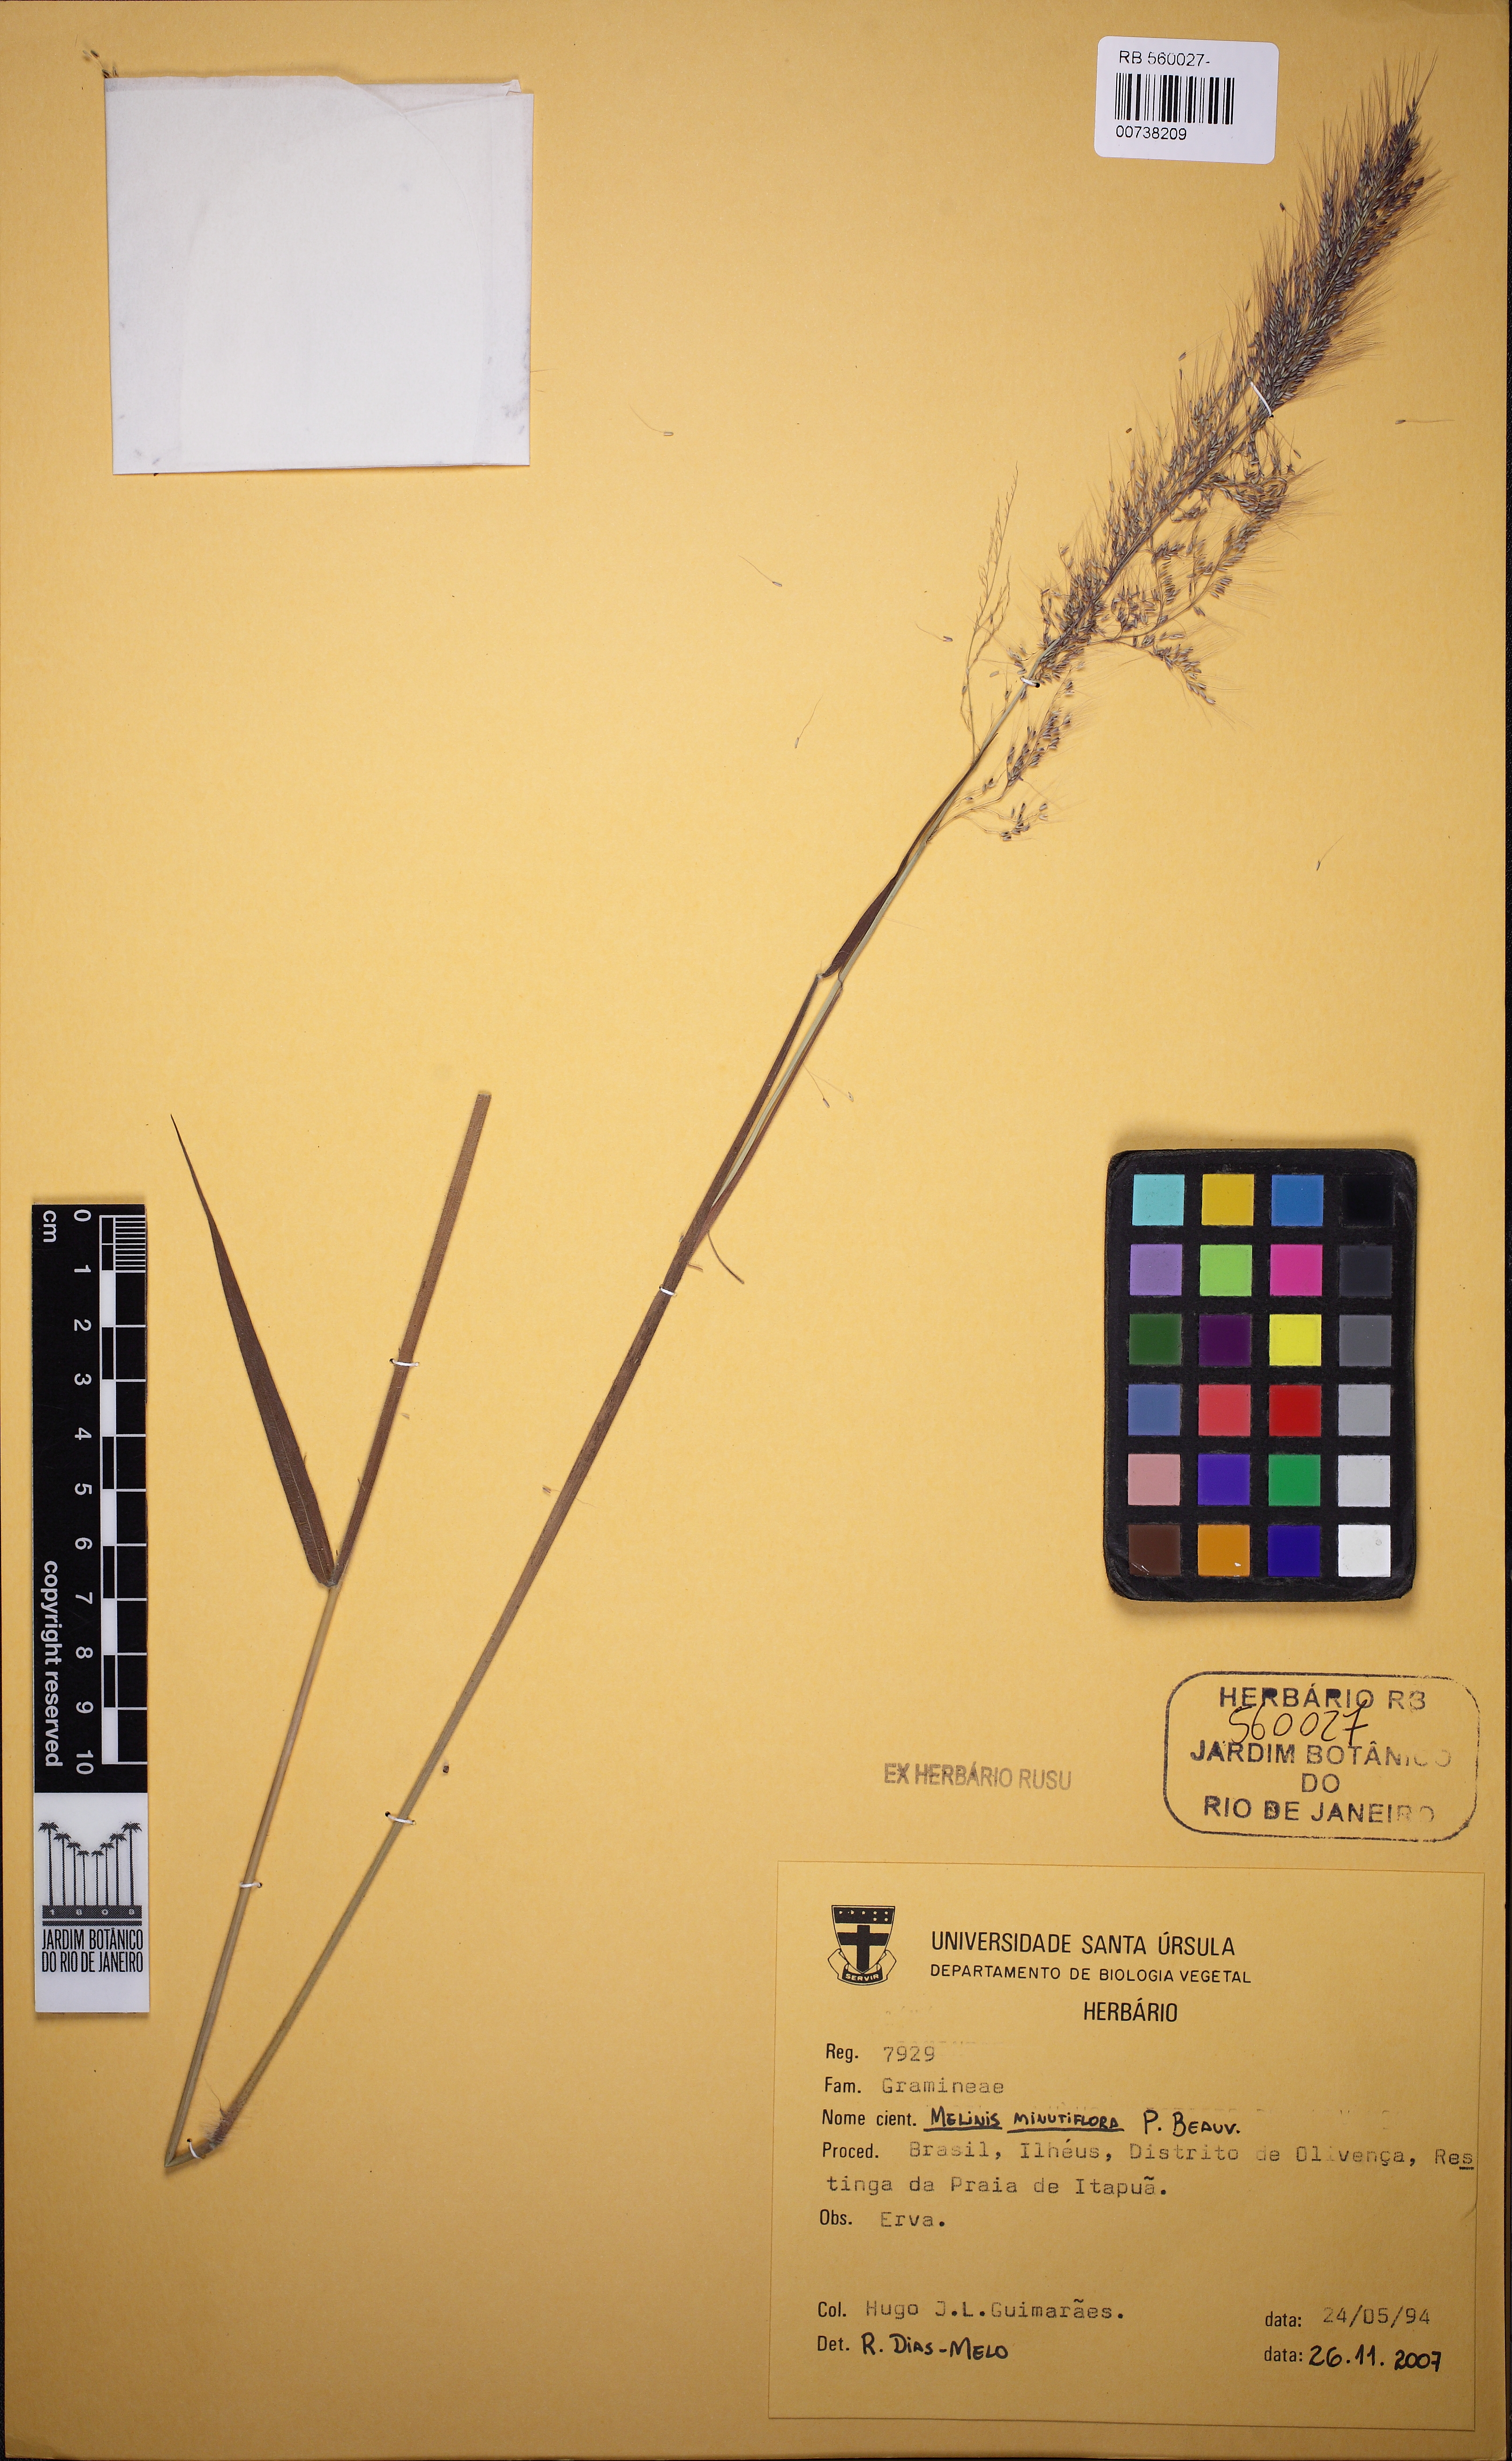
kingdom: Plantae
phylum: Tracheophyta
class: Liliopsida
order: Poales
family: Poaceae
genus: Melinis
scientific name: Melinis minutiflora
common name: Molassesgrass
